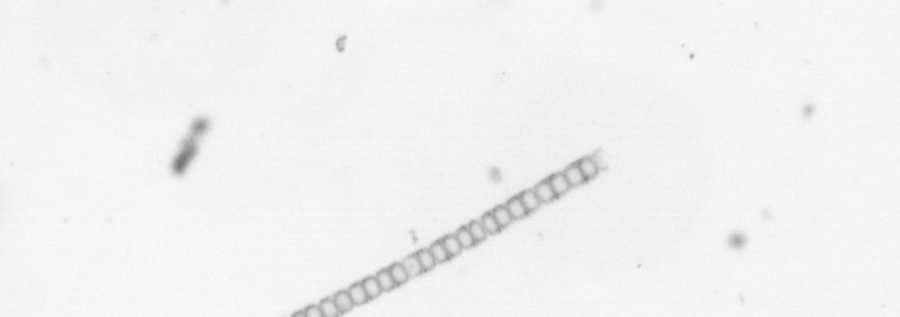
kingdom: Chromista
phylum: Ochrophyta
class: Bacillariophyceae
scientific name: Bacillariophyceae
